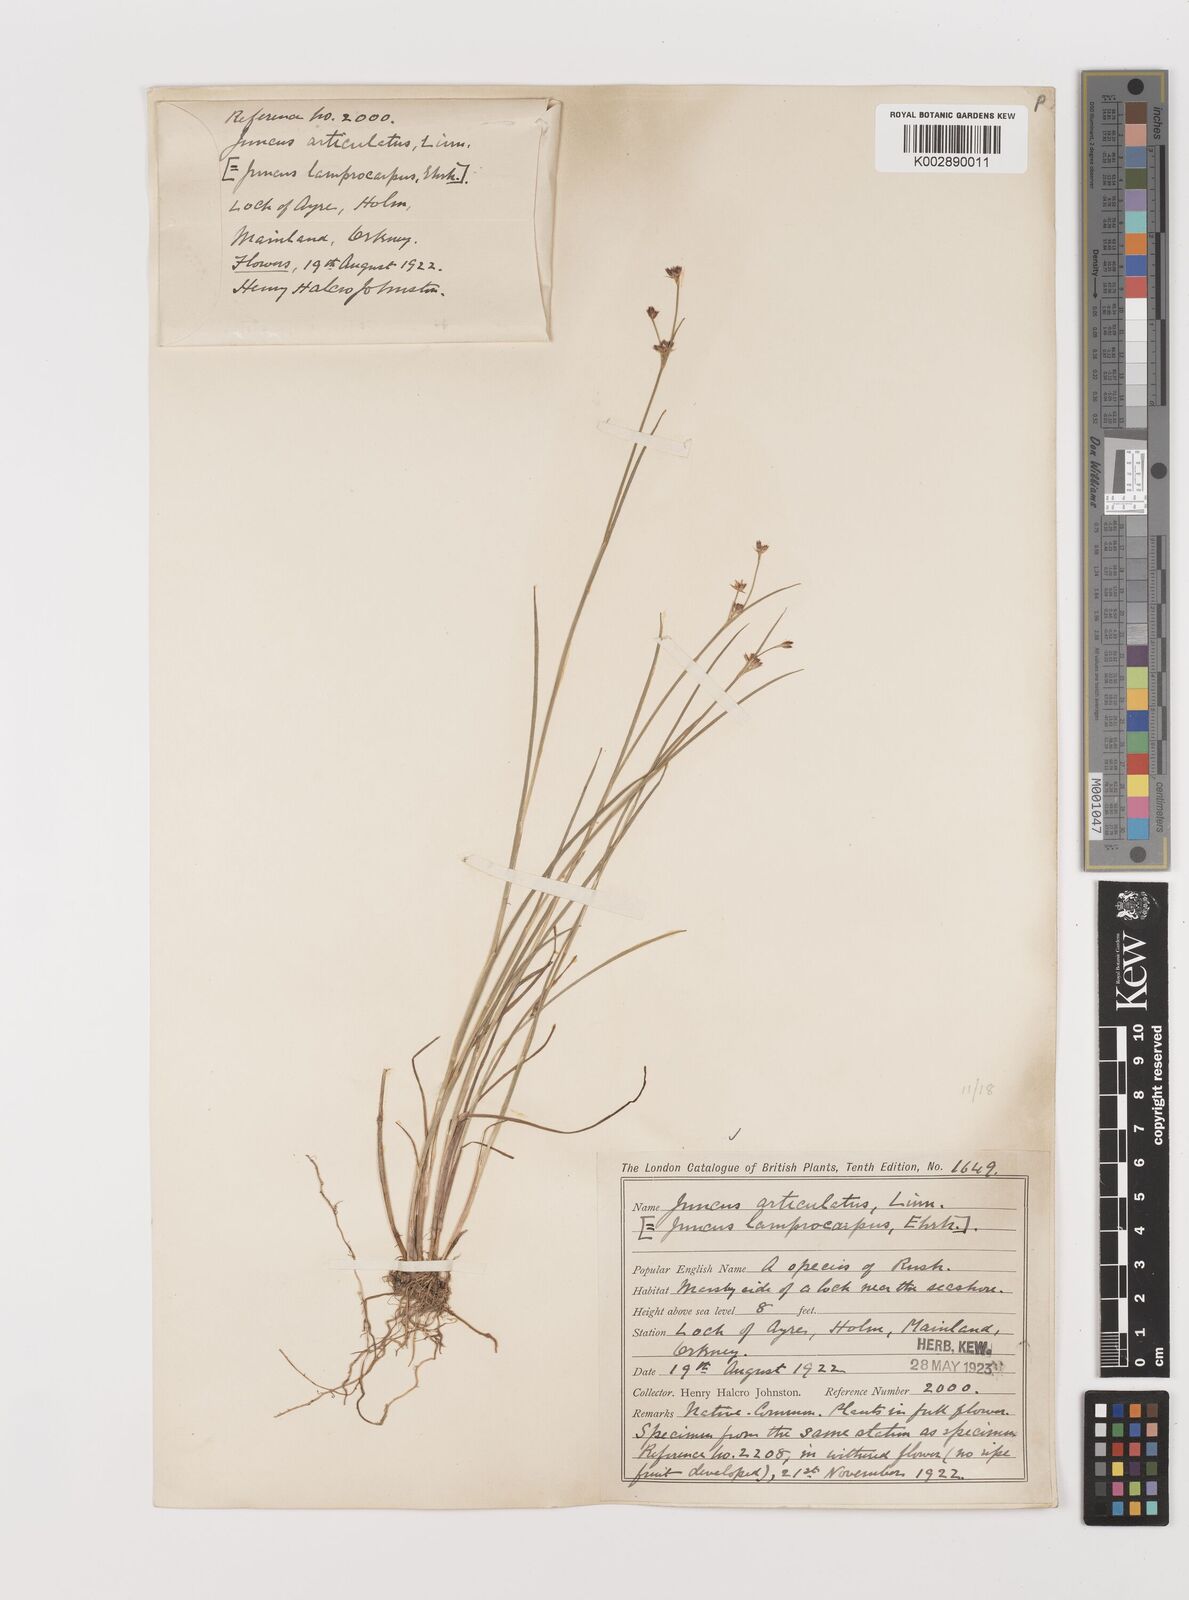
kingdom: Plantae
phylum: Tracheophyta
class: Liliopsida
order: Poales
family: Juncaceae
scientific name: Juncaceae
